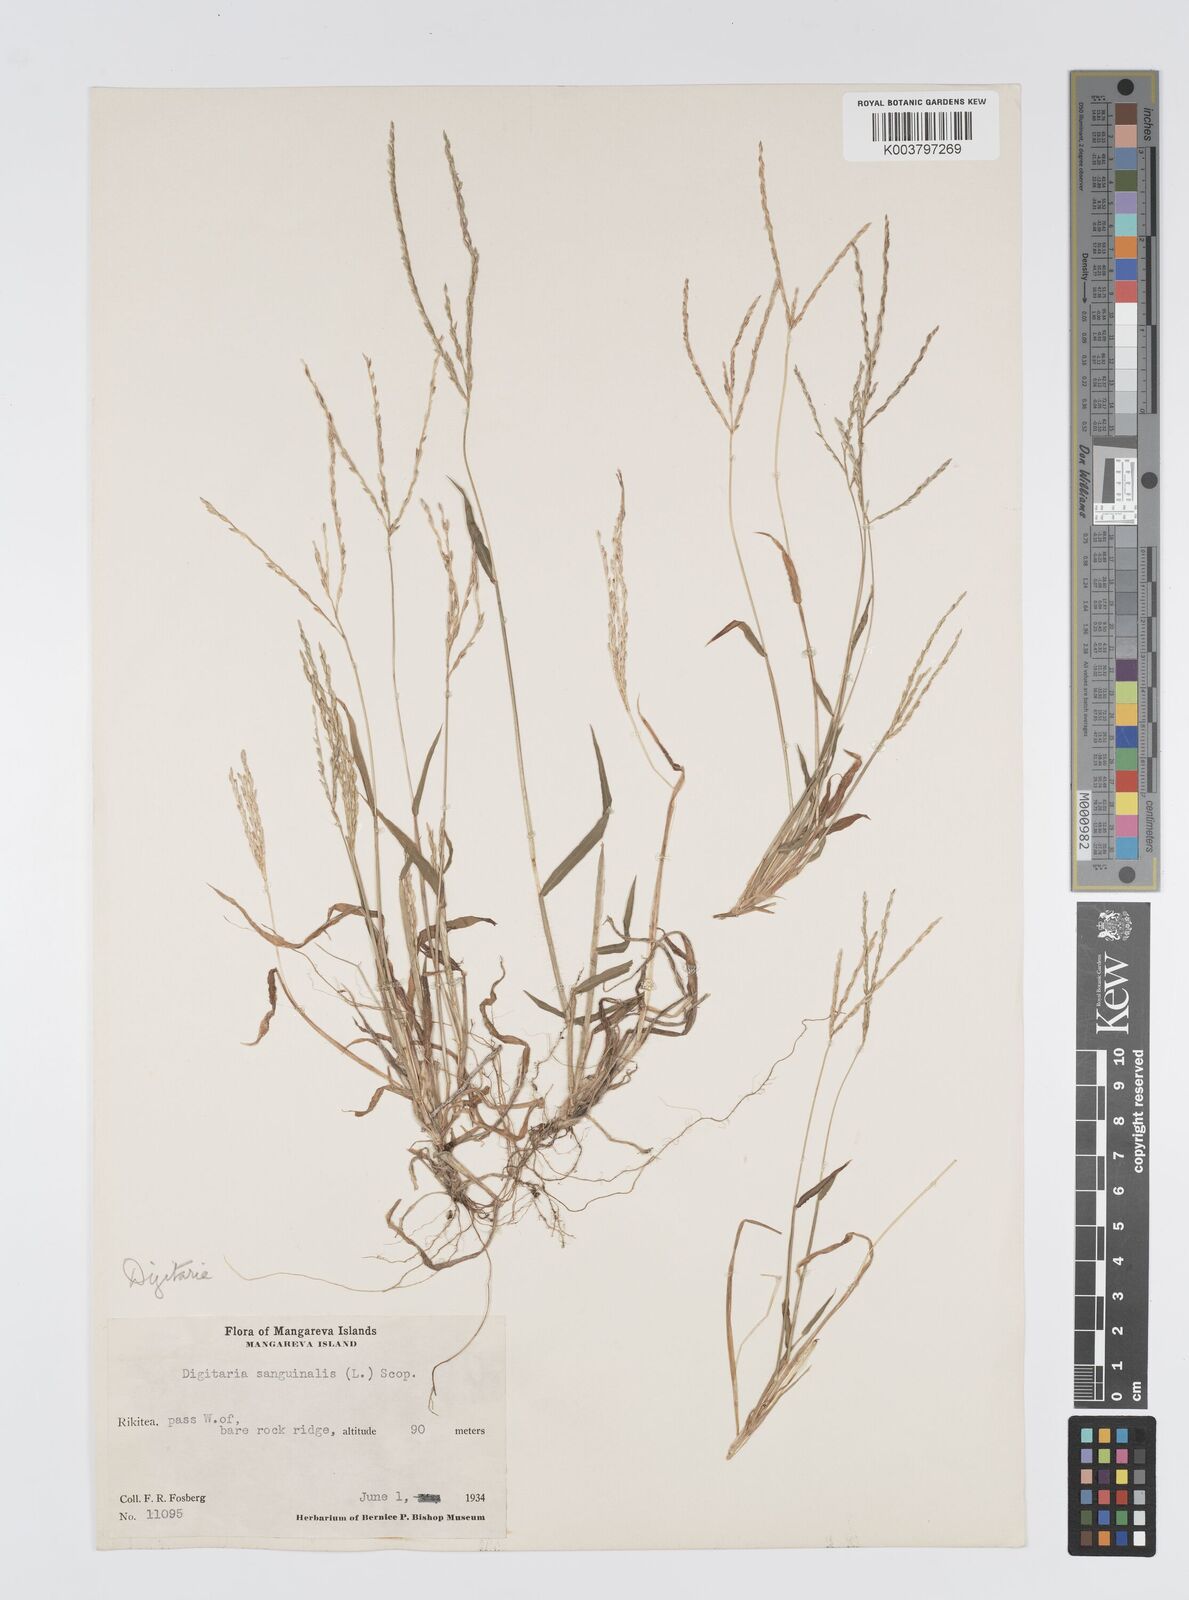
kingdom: Plantae
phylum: Tracheophyta
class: Liliopsida
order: Poales
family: Poaceae
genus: Digitaria
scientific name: Digitaria ciliaris
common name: Tropical finger-grass
